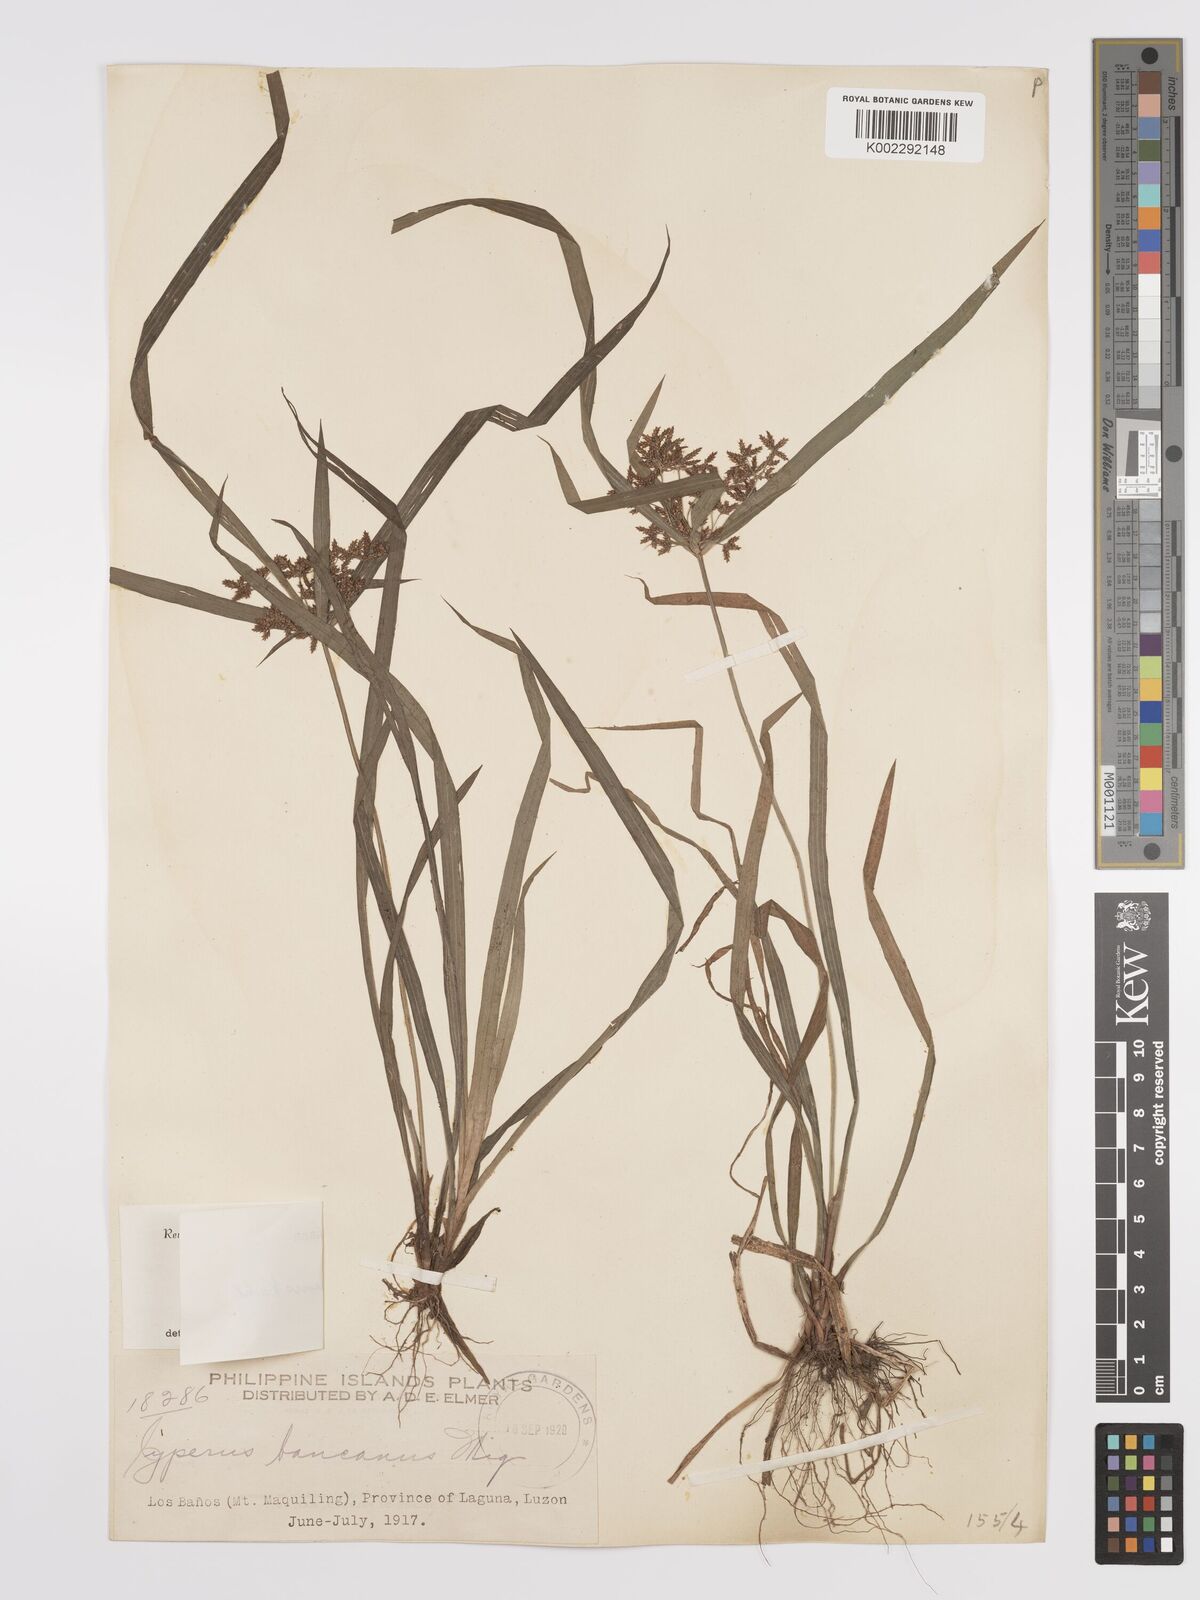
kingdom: Plantae
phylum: Tracheophyta
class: Liliopsida
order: Poales
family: Cyperaceae
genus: Cyperus
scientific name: Cyperus diffusus
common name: Dwarf umbrella grass
